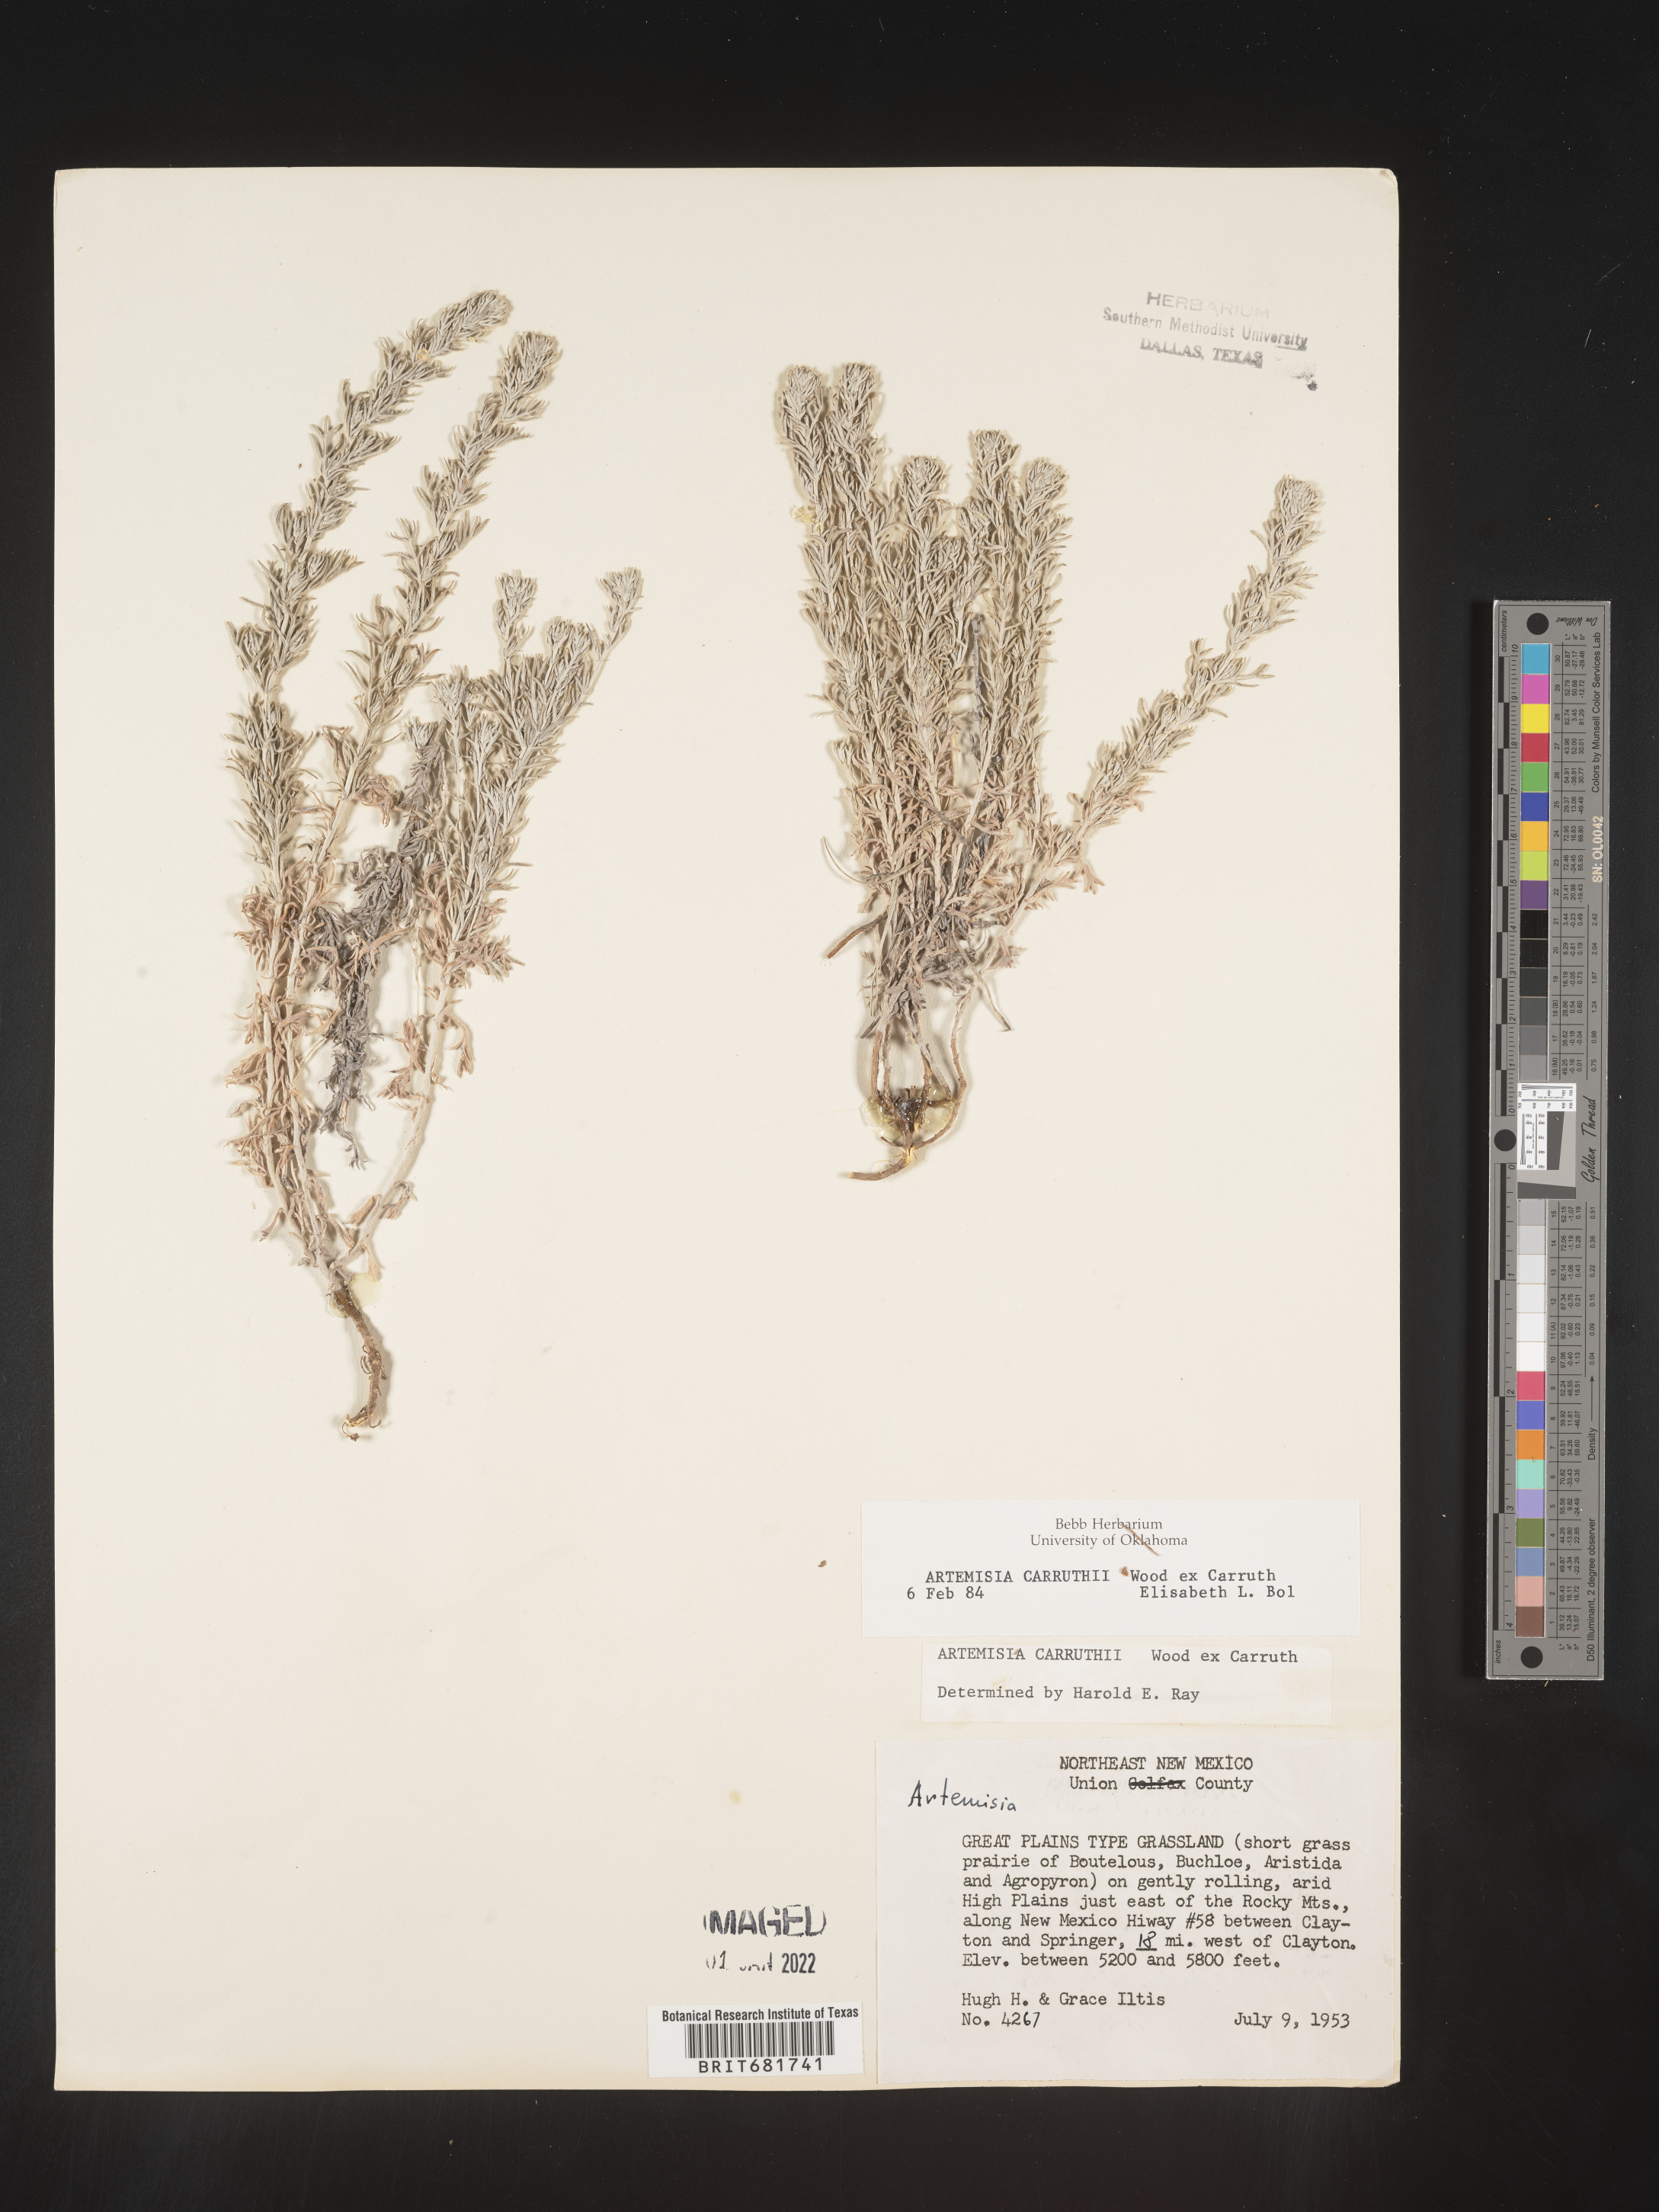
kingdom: Plantae
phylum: Tracheophyta
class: Magnoliopsida
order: Asterales
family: Asteraceae
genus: Artemisia
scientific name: Artemisia carruthii
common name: Carruth wormwood
